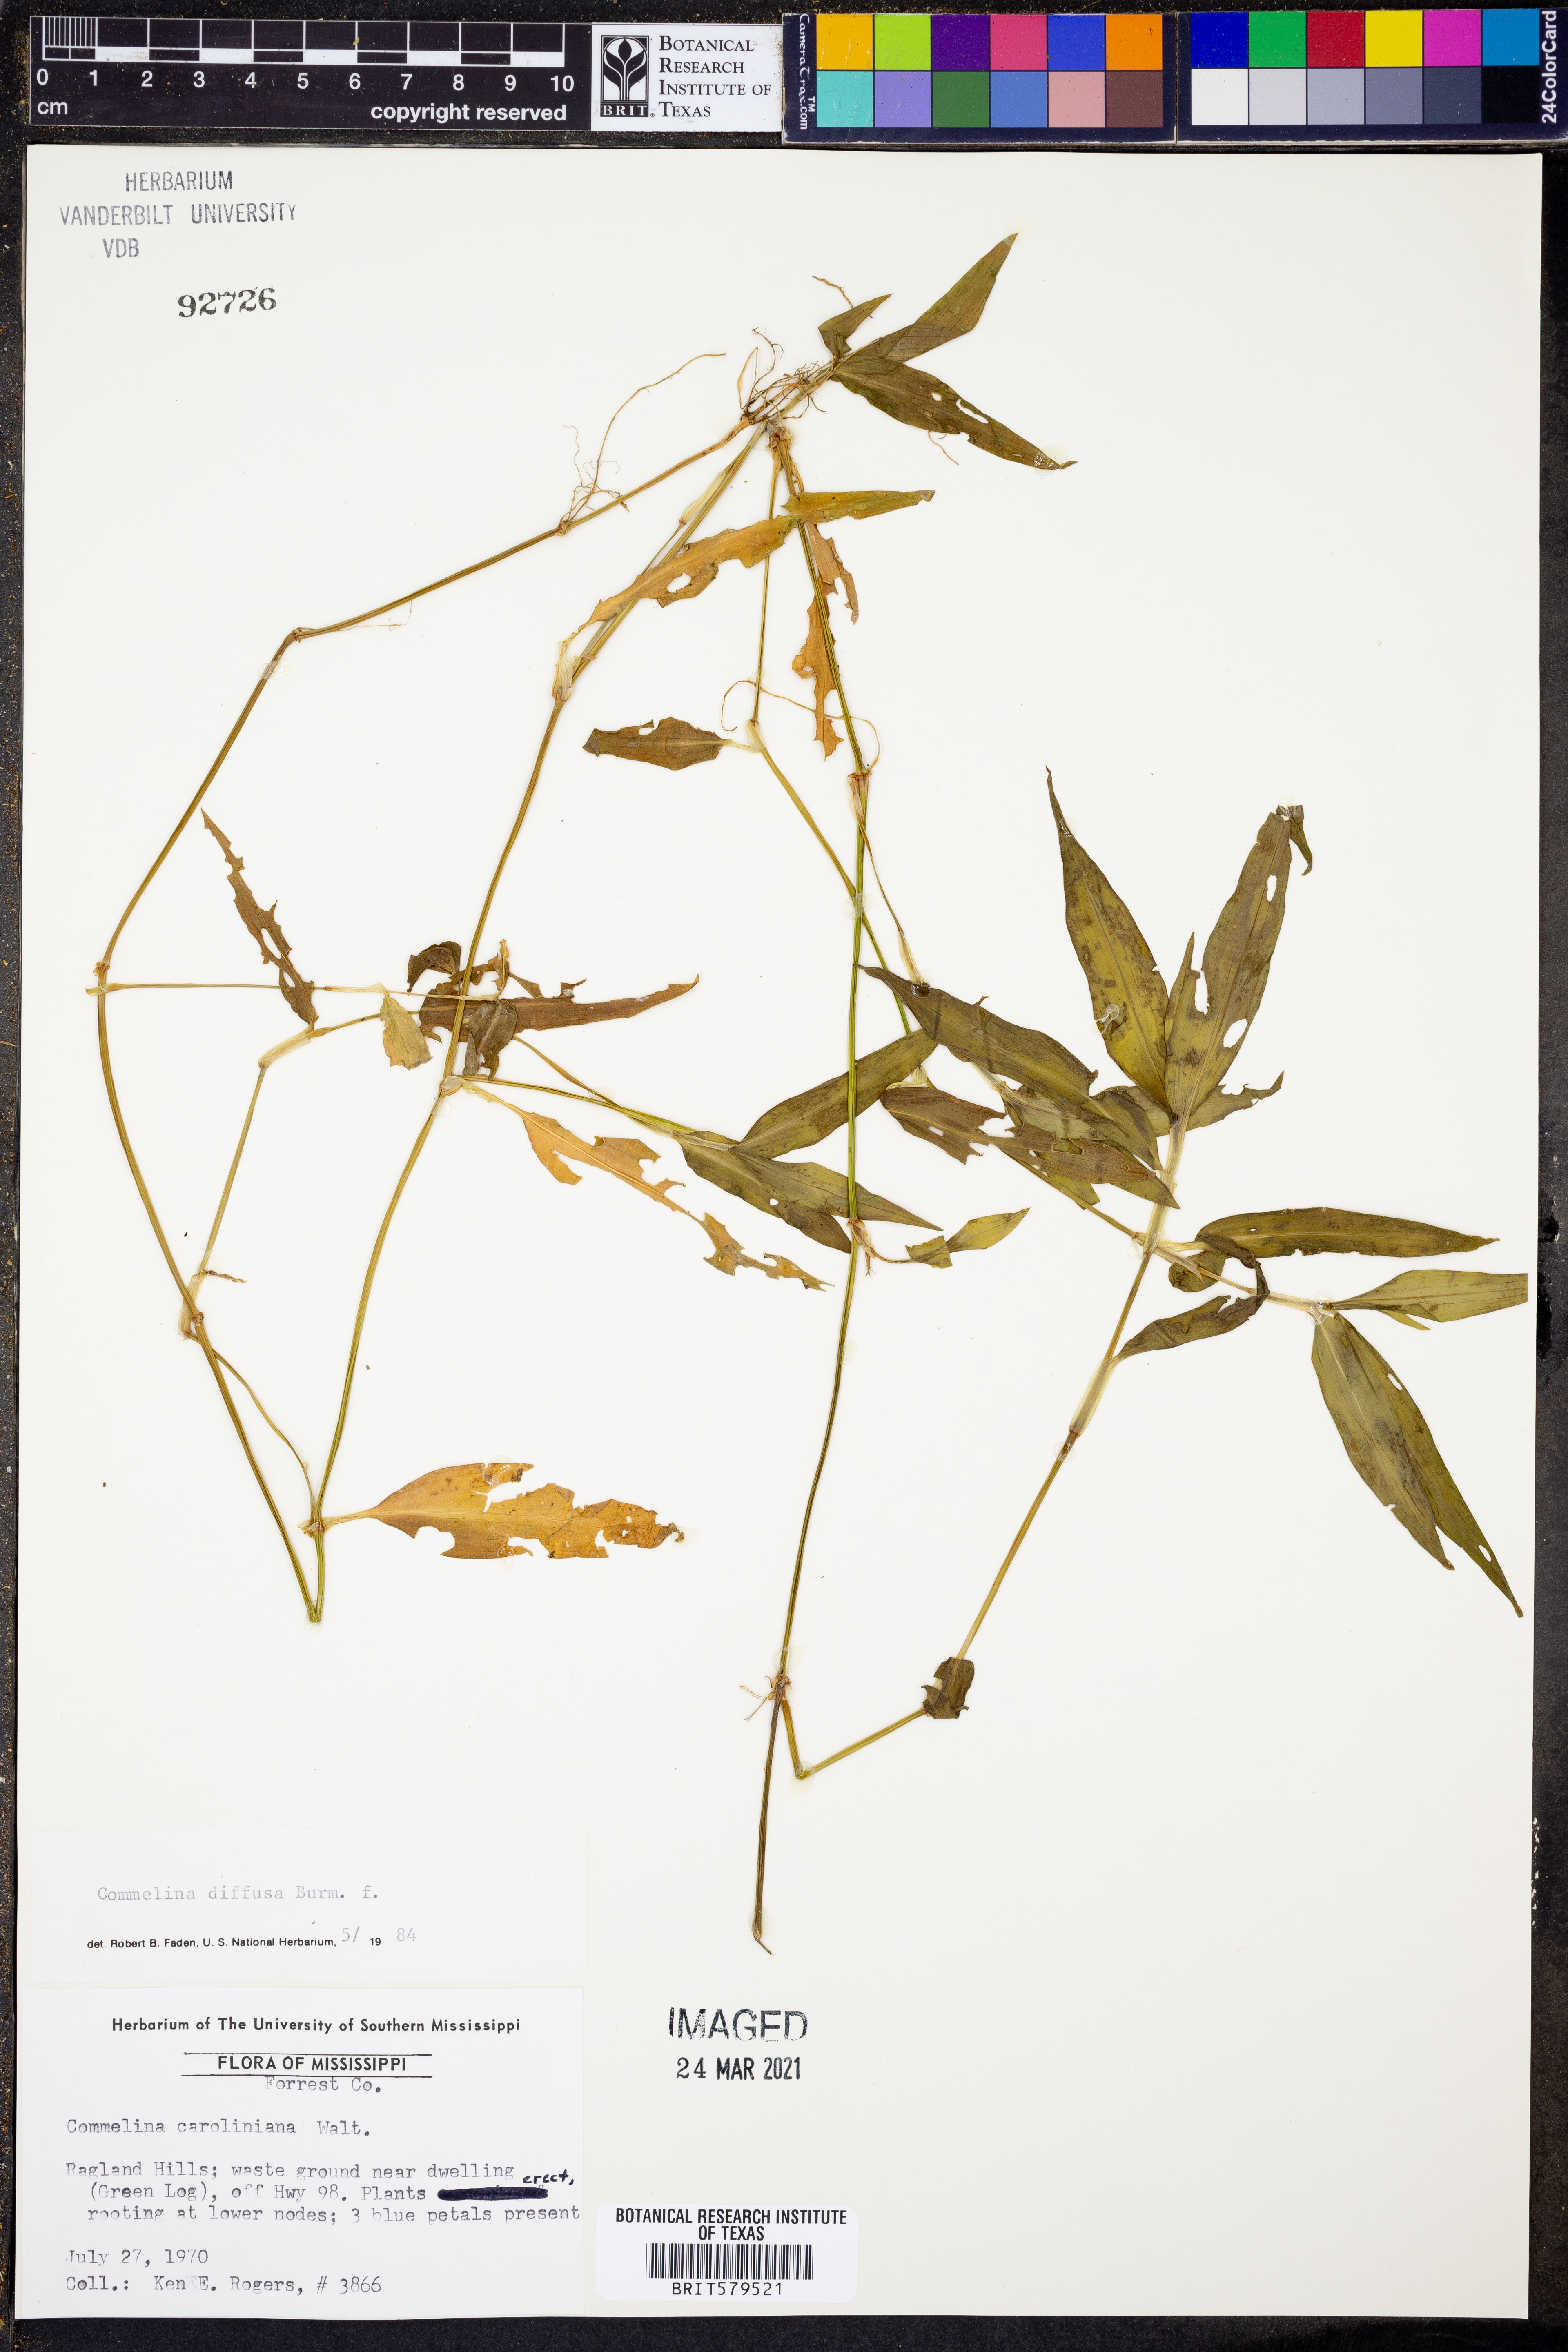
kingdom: Plantae
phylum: Tracheophyta
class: Liliopsida
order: Commelinales
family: Commelinaceae
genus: Commelina
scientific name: Commelina caroliniana
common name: Carolina dayflower
